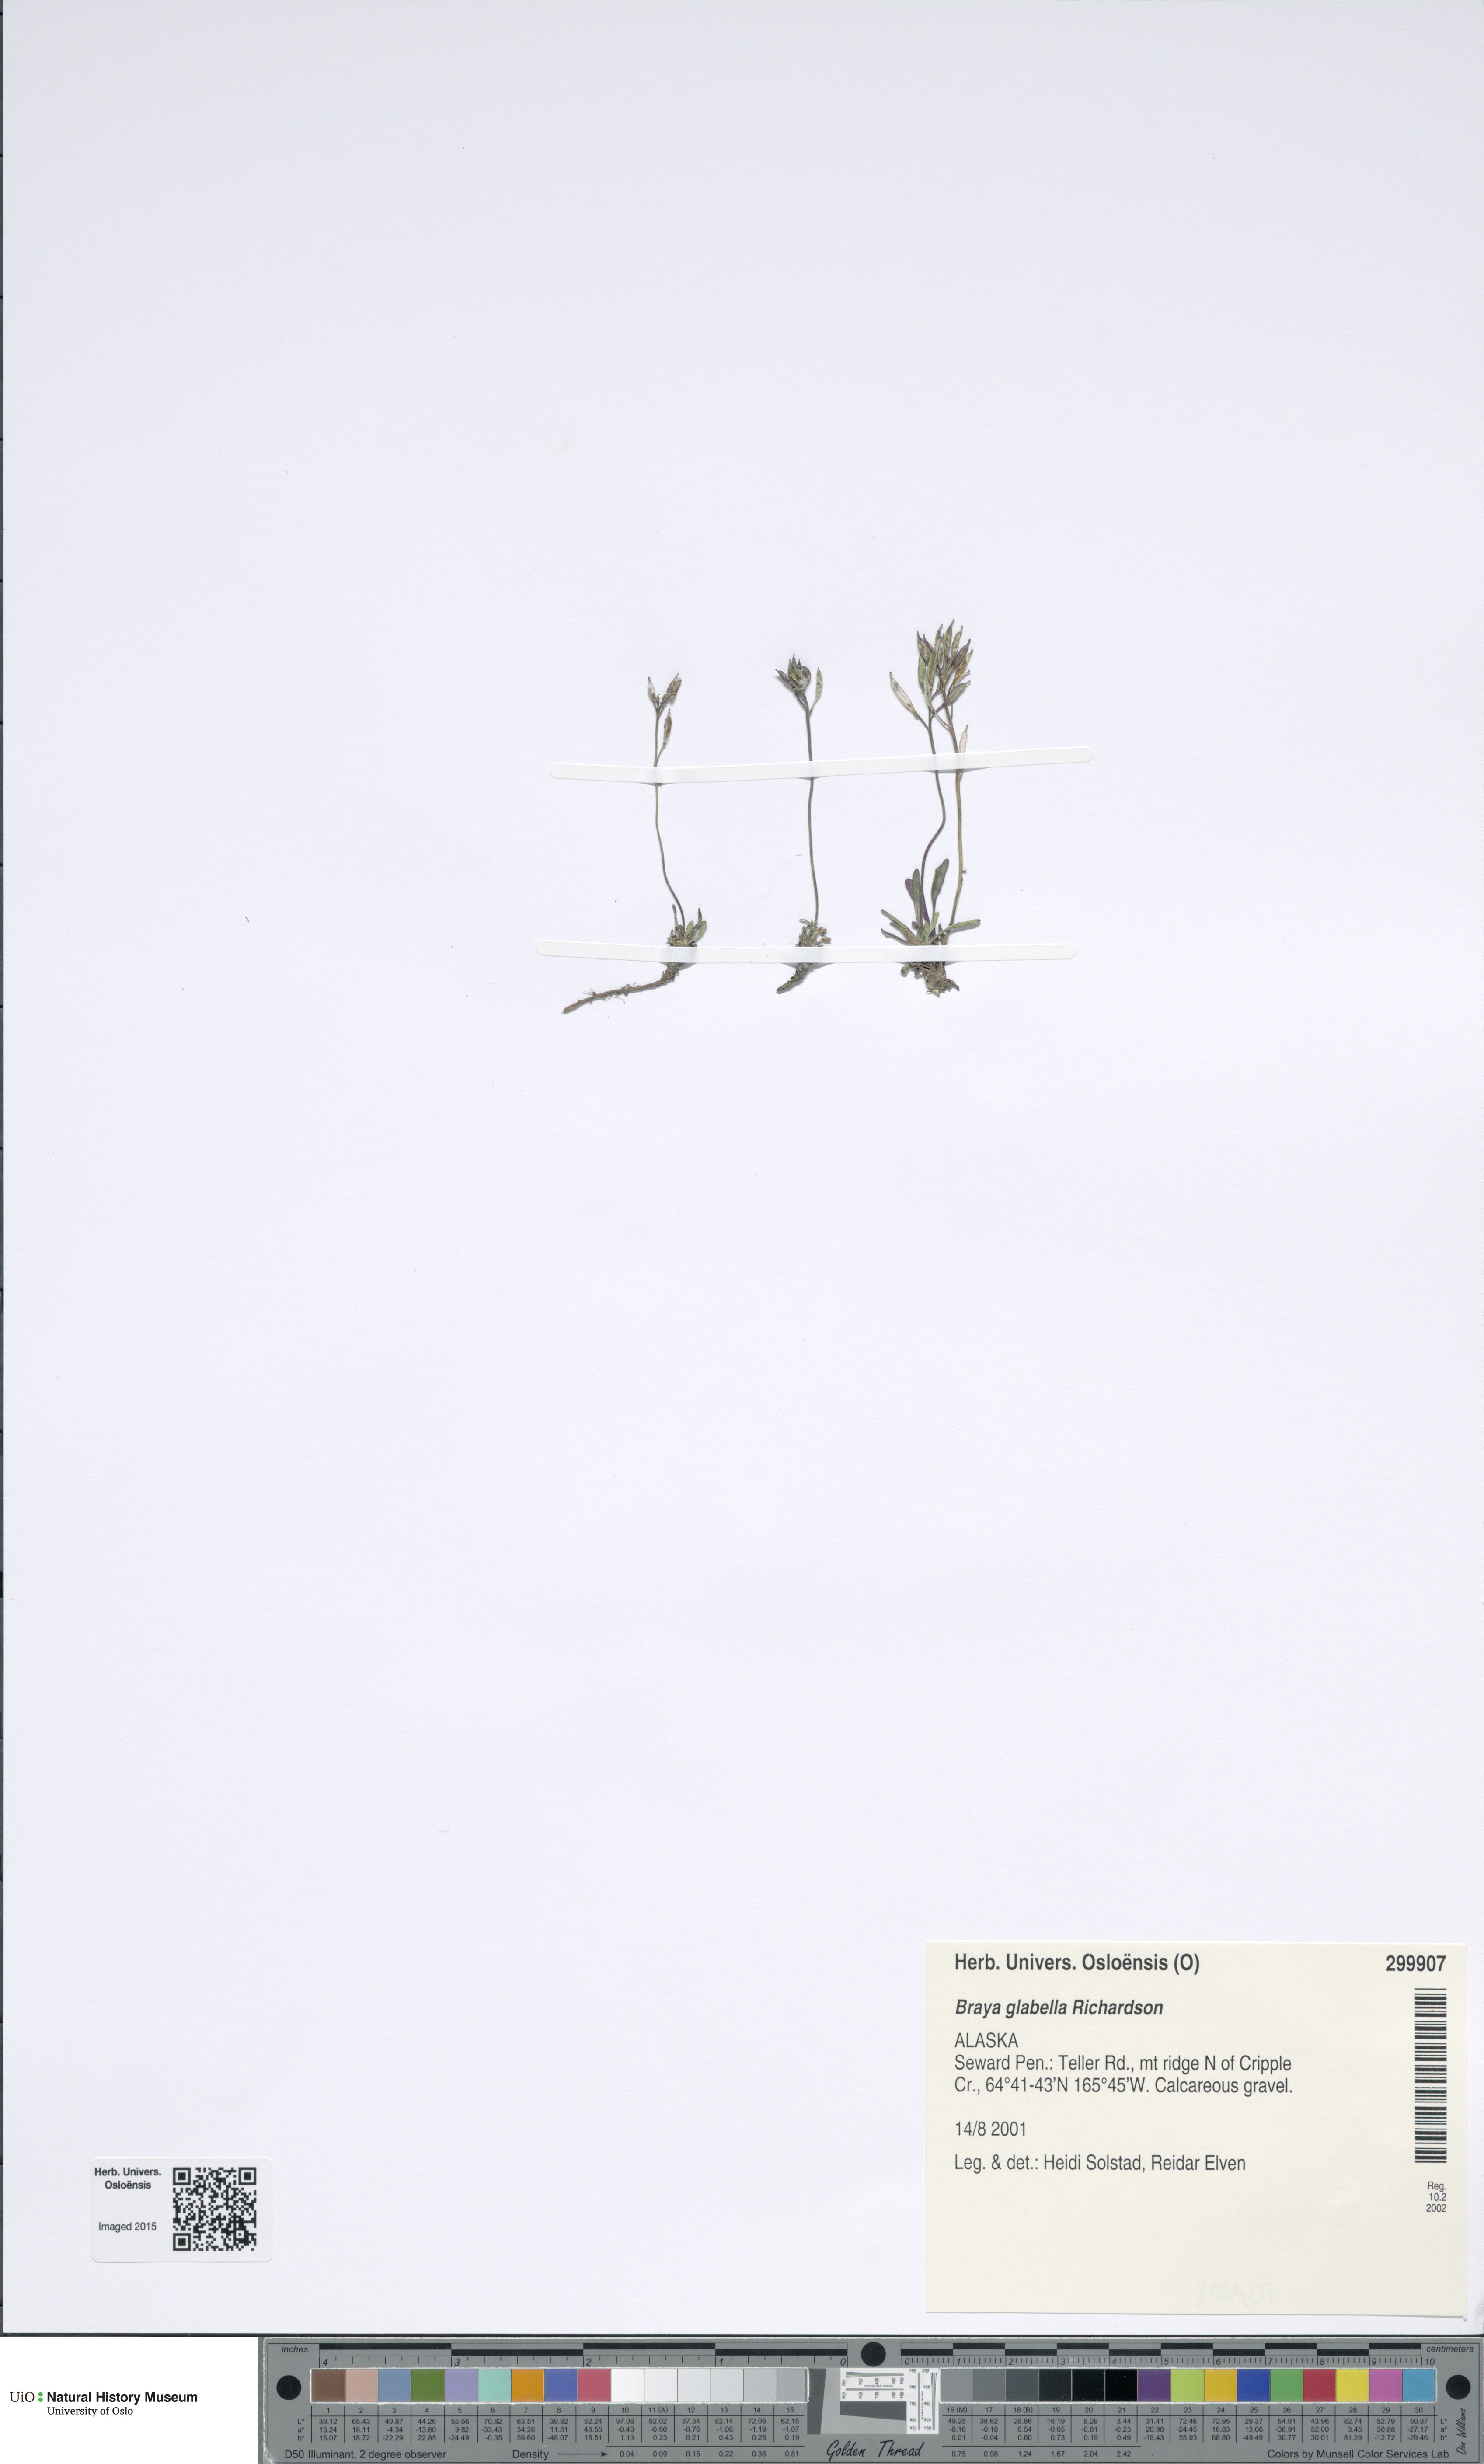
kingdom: Plantae
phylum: Tracheophyta
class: Magnoliopsida
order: Brassicales
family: Brassicaceae
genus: Braya
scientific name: Braya glabella
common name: Smooth braya
